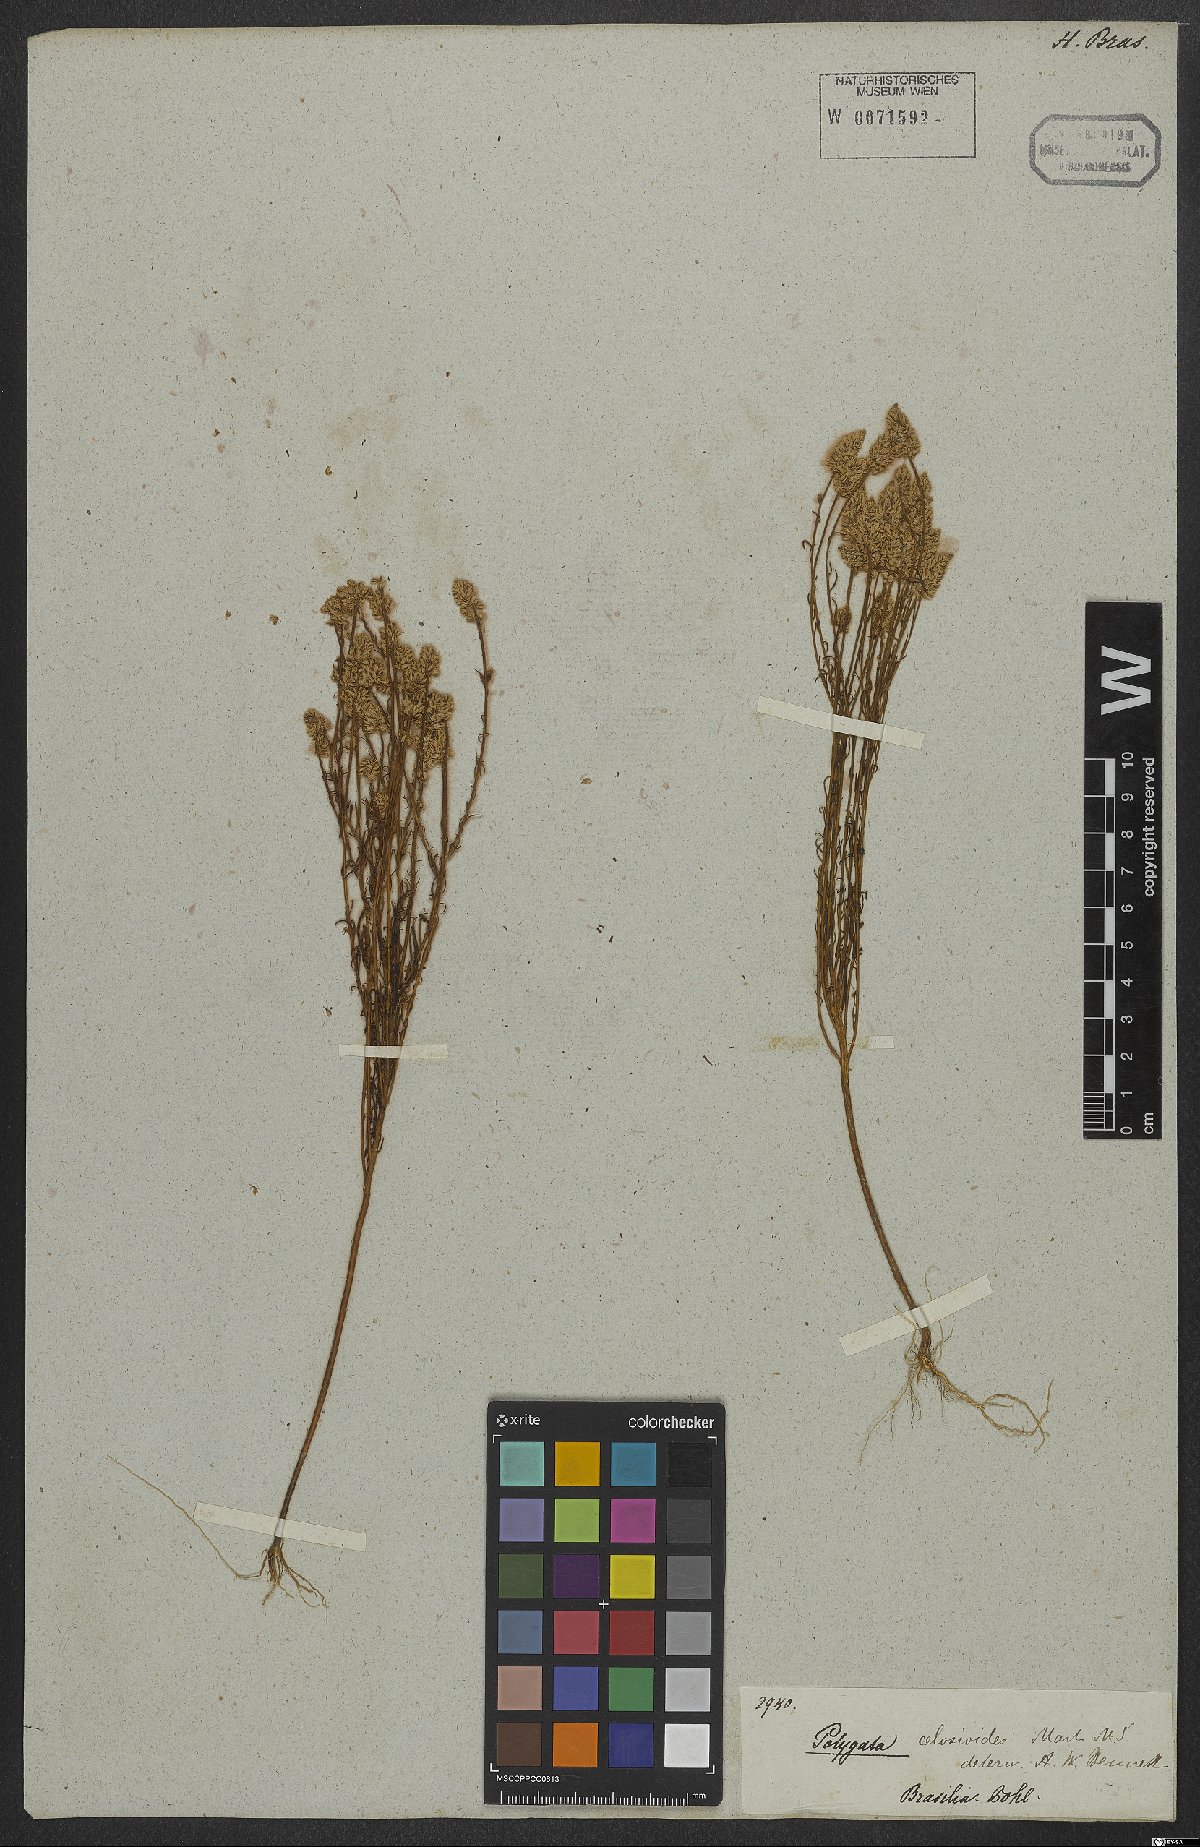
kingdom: Plantae
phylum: Tracheophyta
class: Magnoliopsida
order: Fabales
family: Polygalaceae
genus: Polygala
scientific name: Polygala celosioides
